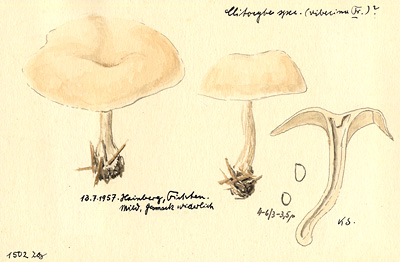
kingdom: Plantae
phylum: Tracheophyta
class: Pinopsida
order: Pinales
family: Pinaceae
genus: Picea
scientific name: Picea
